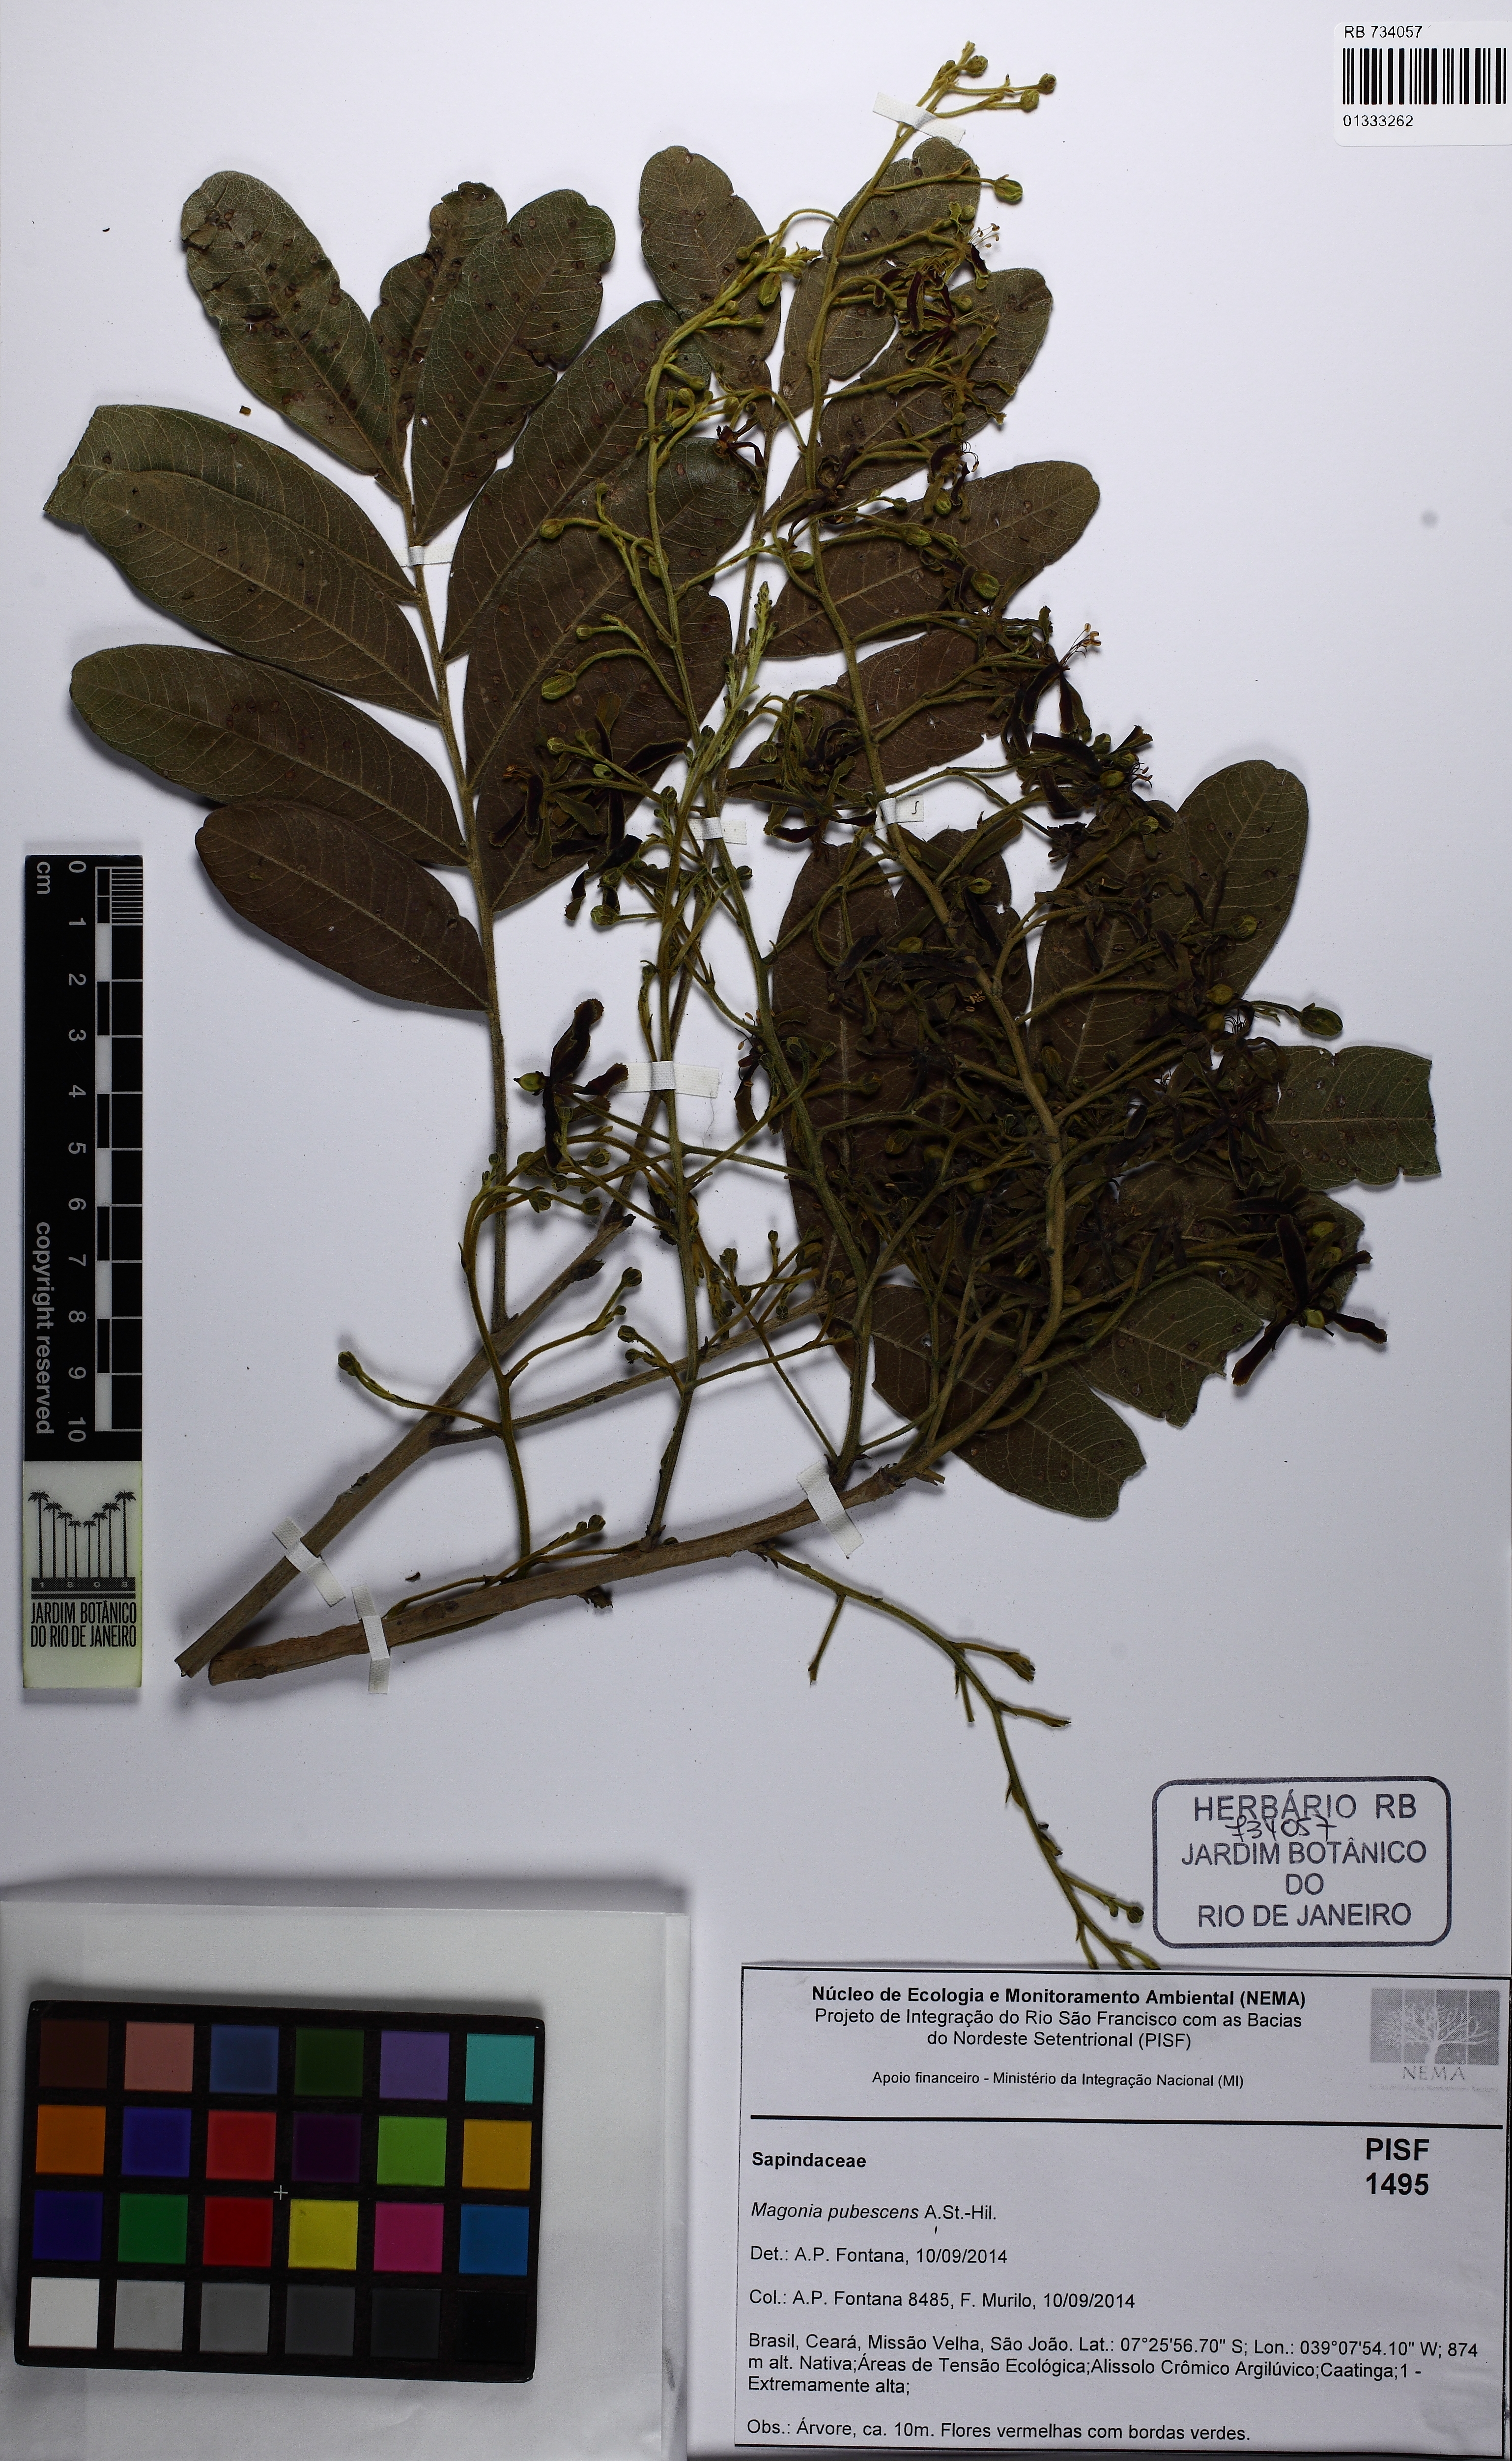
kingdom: Plantae
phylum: Tracheophyta
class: Magnoliopsida
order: Sapindales
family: Sapindaceae
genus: Magonia
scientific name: Magonia pubescens
